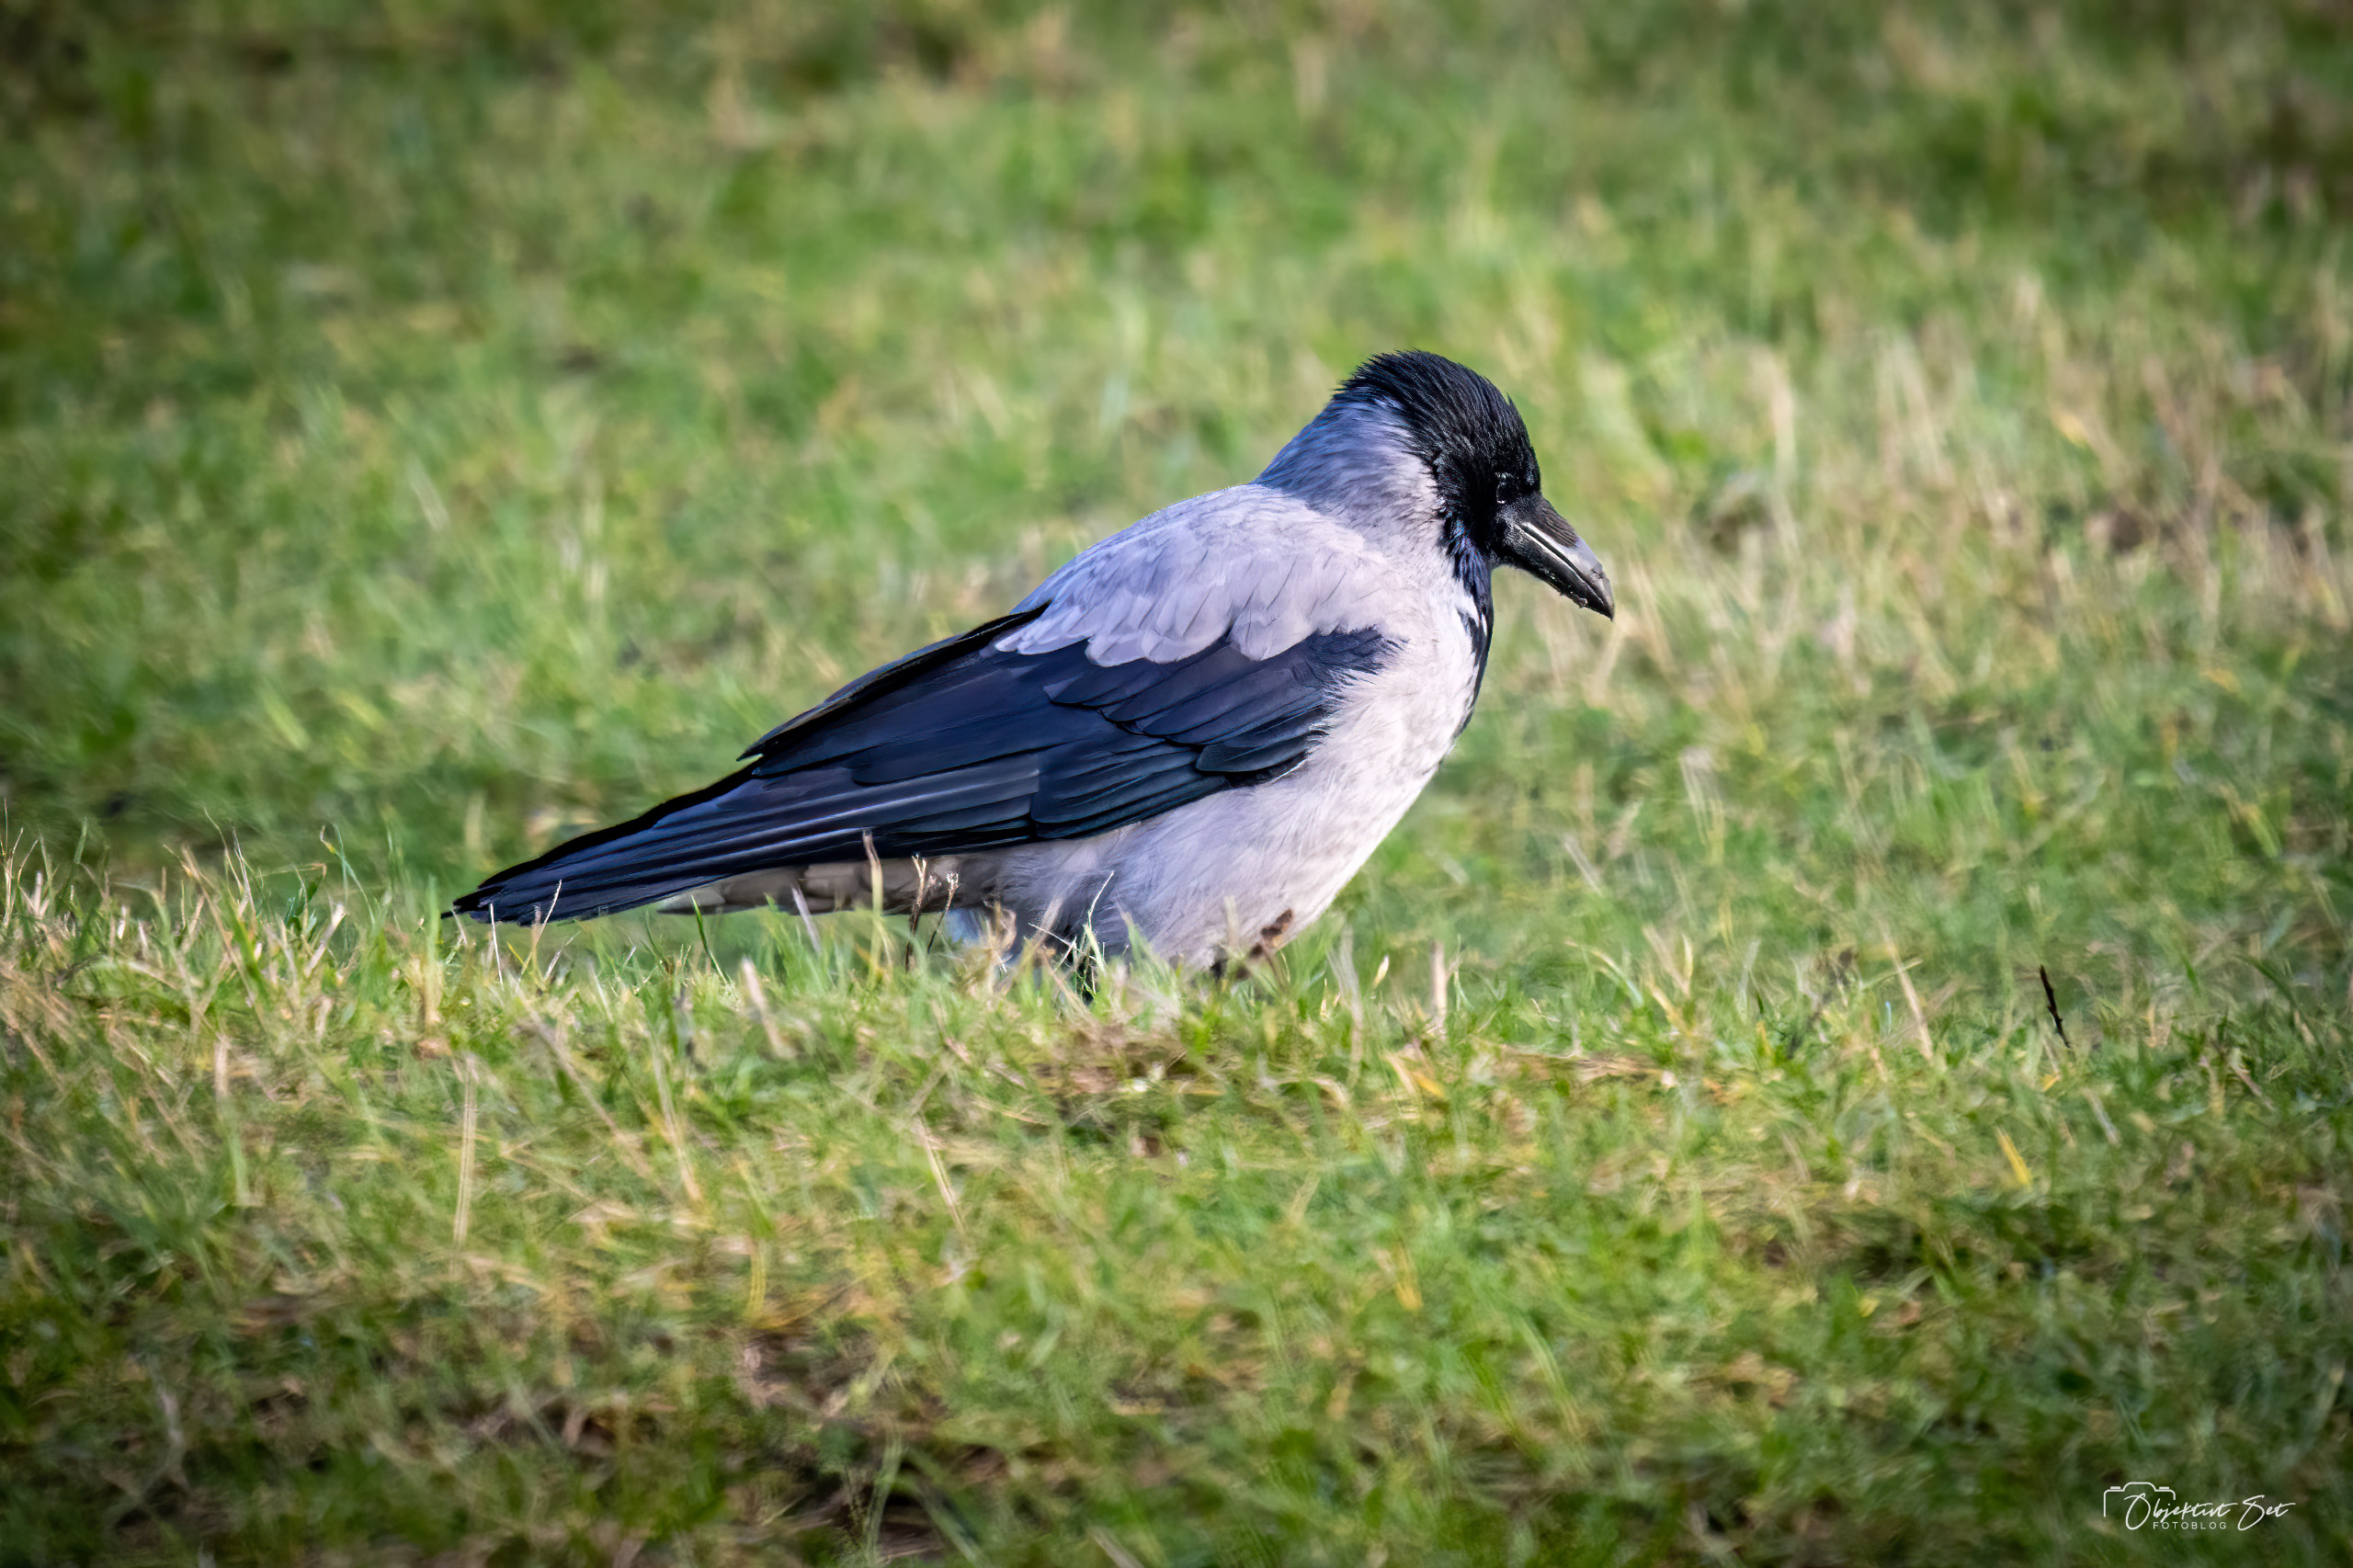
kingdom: Animalia
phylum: Chordata
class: Aves
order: Passeriformes
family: Corvidae
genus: Corvus
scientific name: Corvus cornix
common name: Gråkrage
